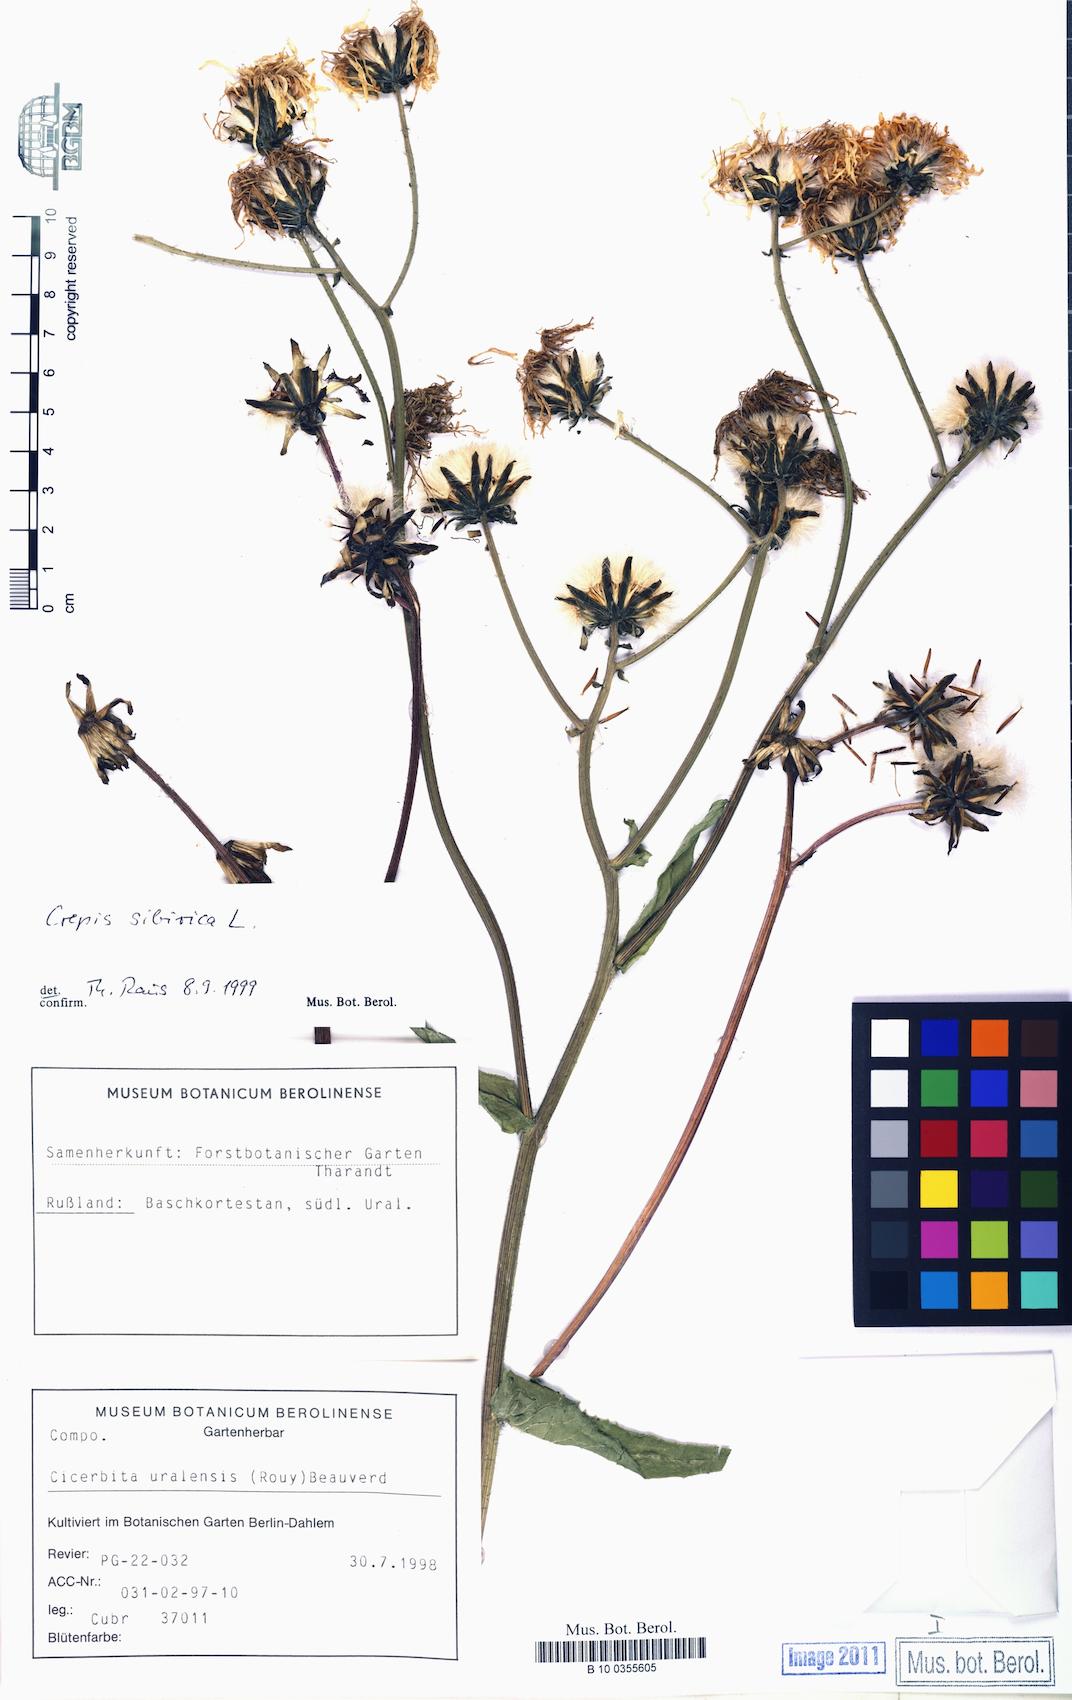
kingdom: Plantae
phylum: Tracheophyta
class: Magnoliopsida
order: Asterales
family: Asteraceae
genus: Crepis
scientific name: Crepis sibirica
